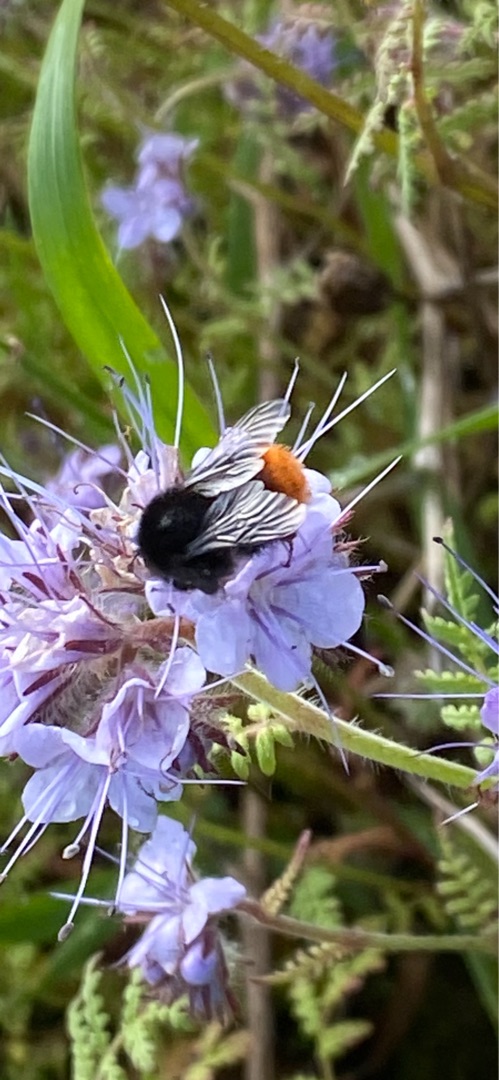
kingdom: Plantae
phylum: Tracheophyta
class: Magnoliopsida
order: Boraginales
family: Hydrophyllaceae
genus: Phacelia
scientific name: Phacelia tanacetifolia
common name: Honningurt
